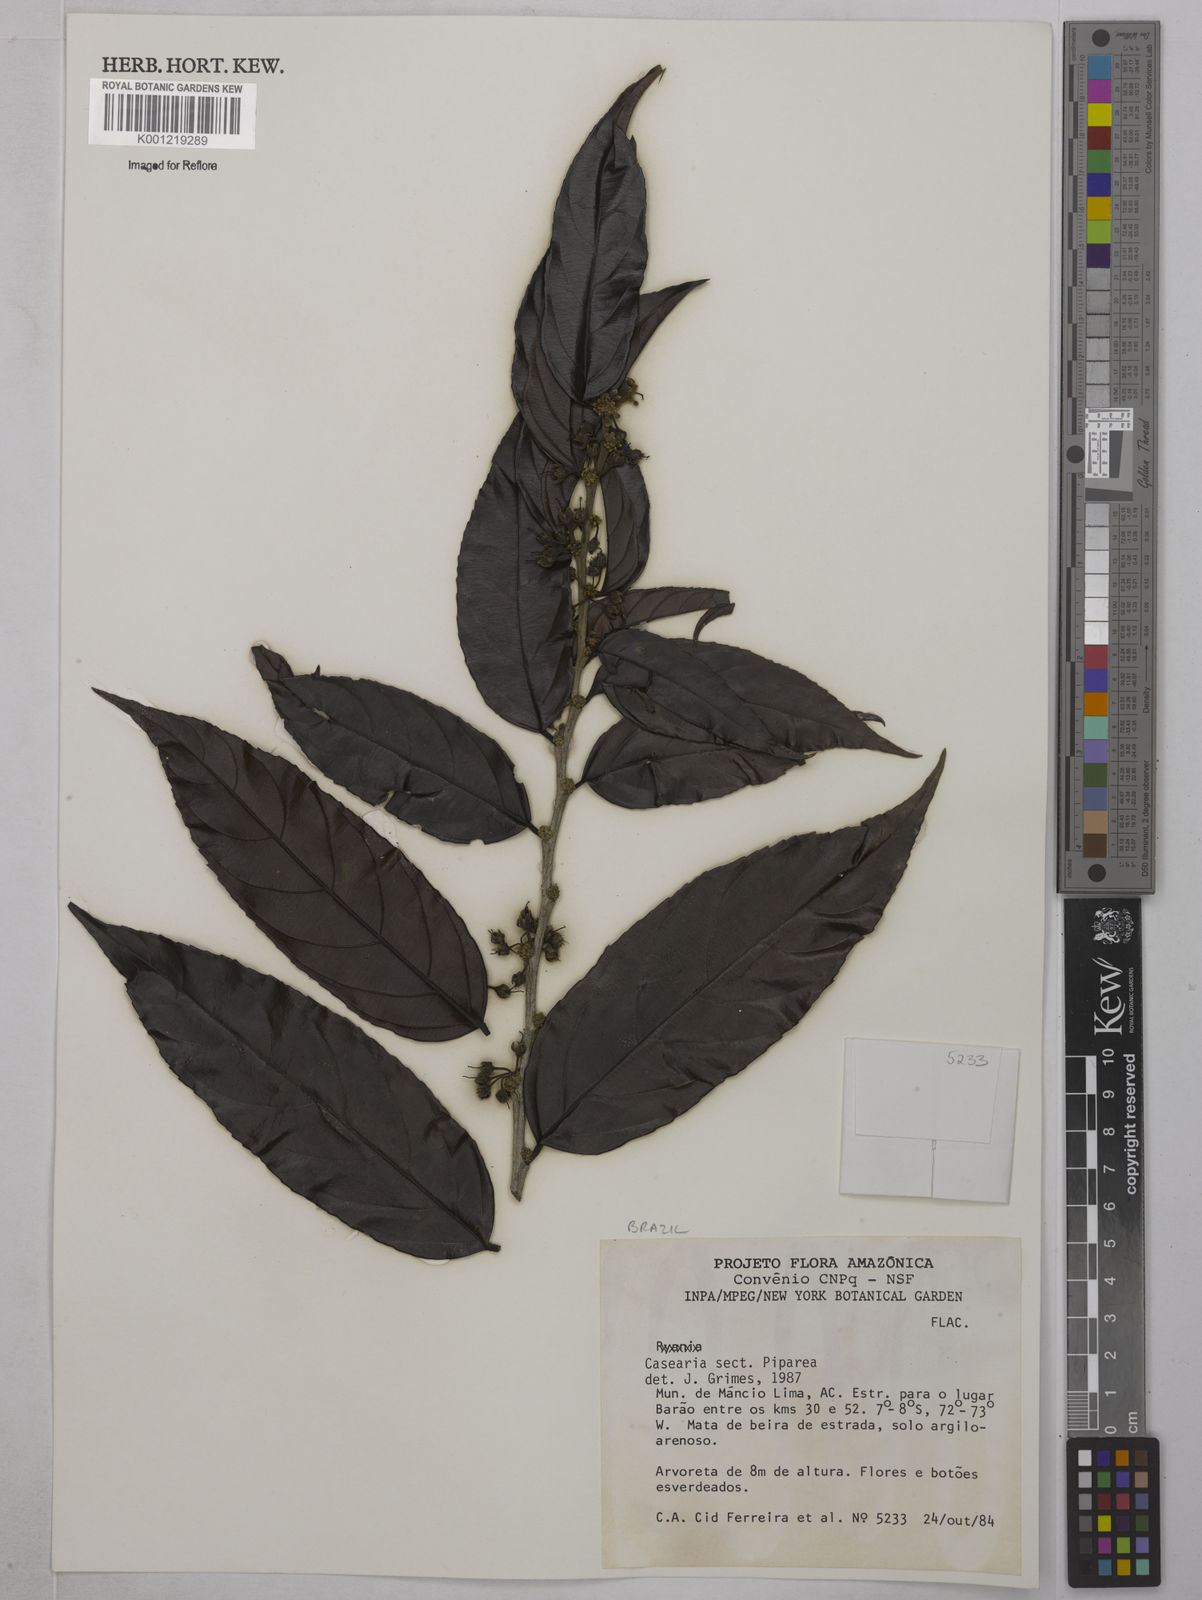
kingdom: Plantae
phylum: Tracheophyta
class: Magnoliopsida
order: Malpighiales
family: Salicaceae
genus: Casearia
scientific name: Casearia
